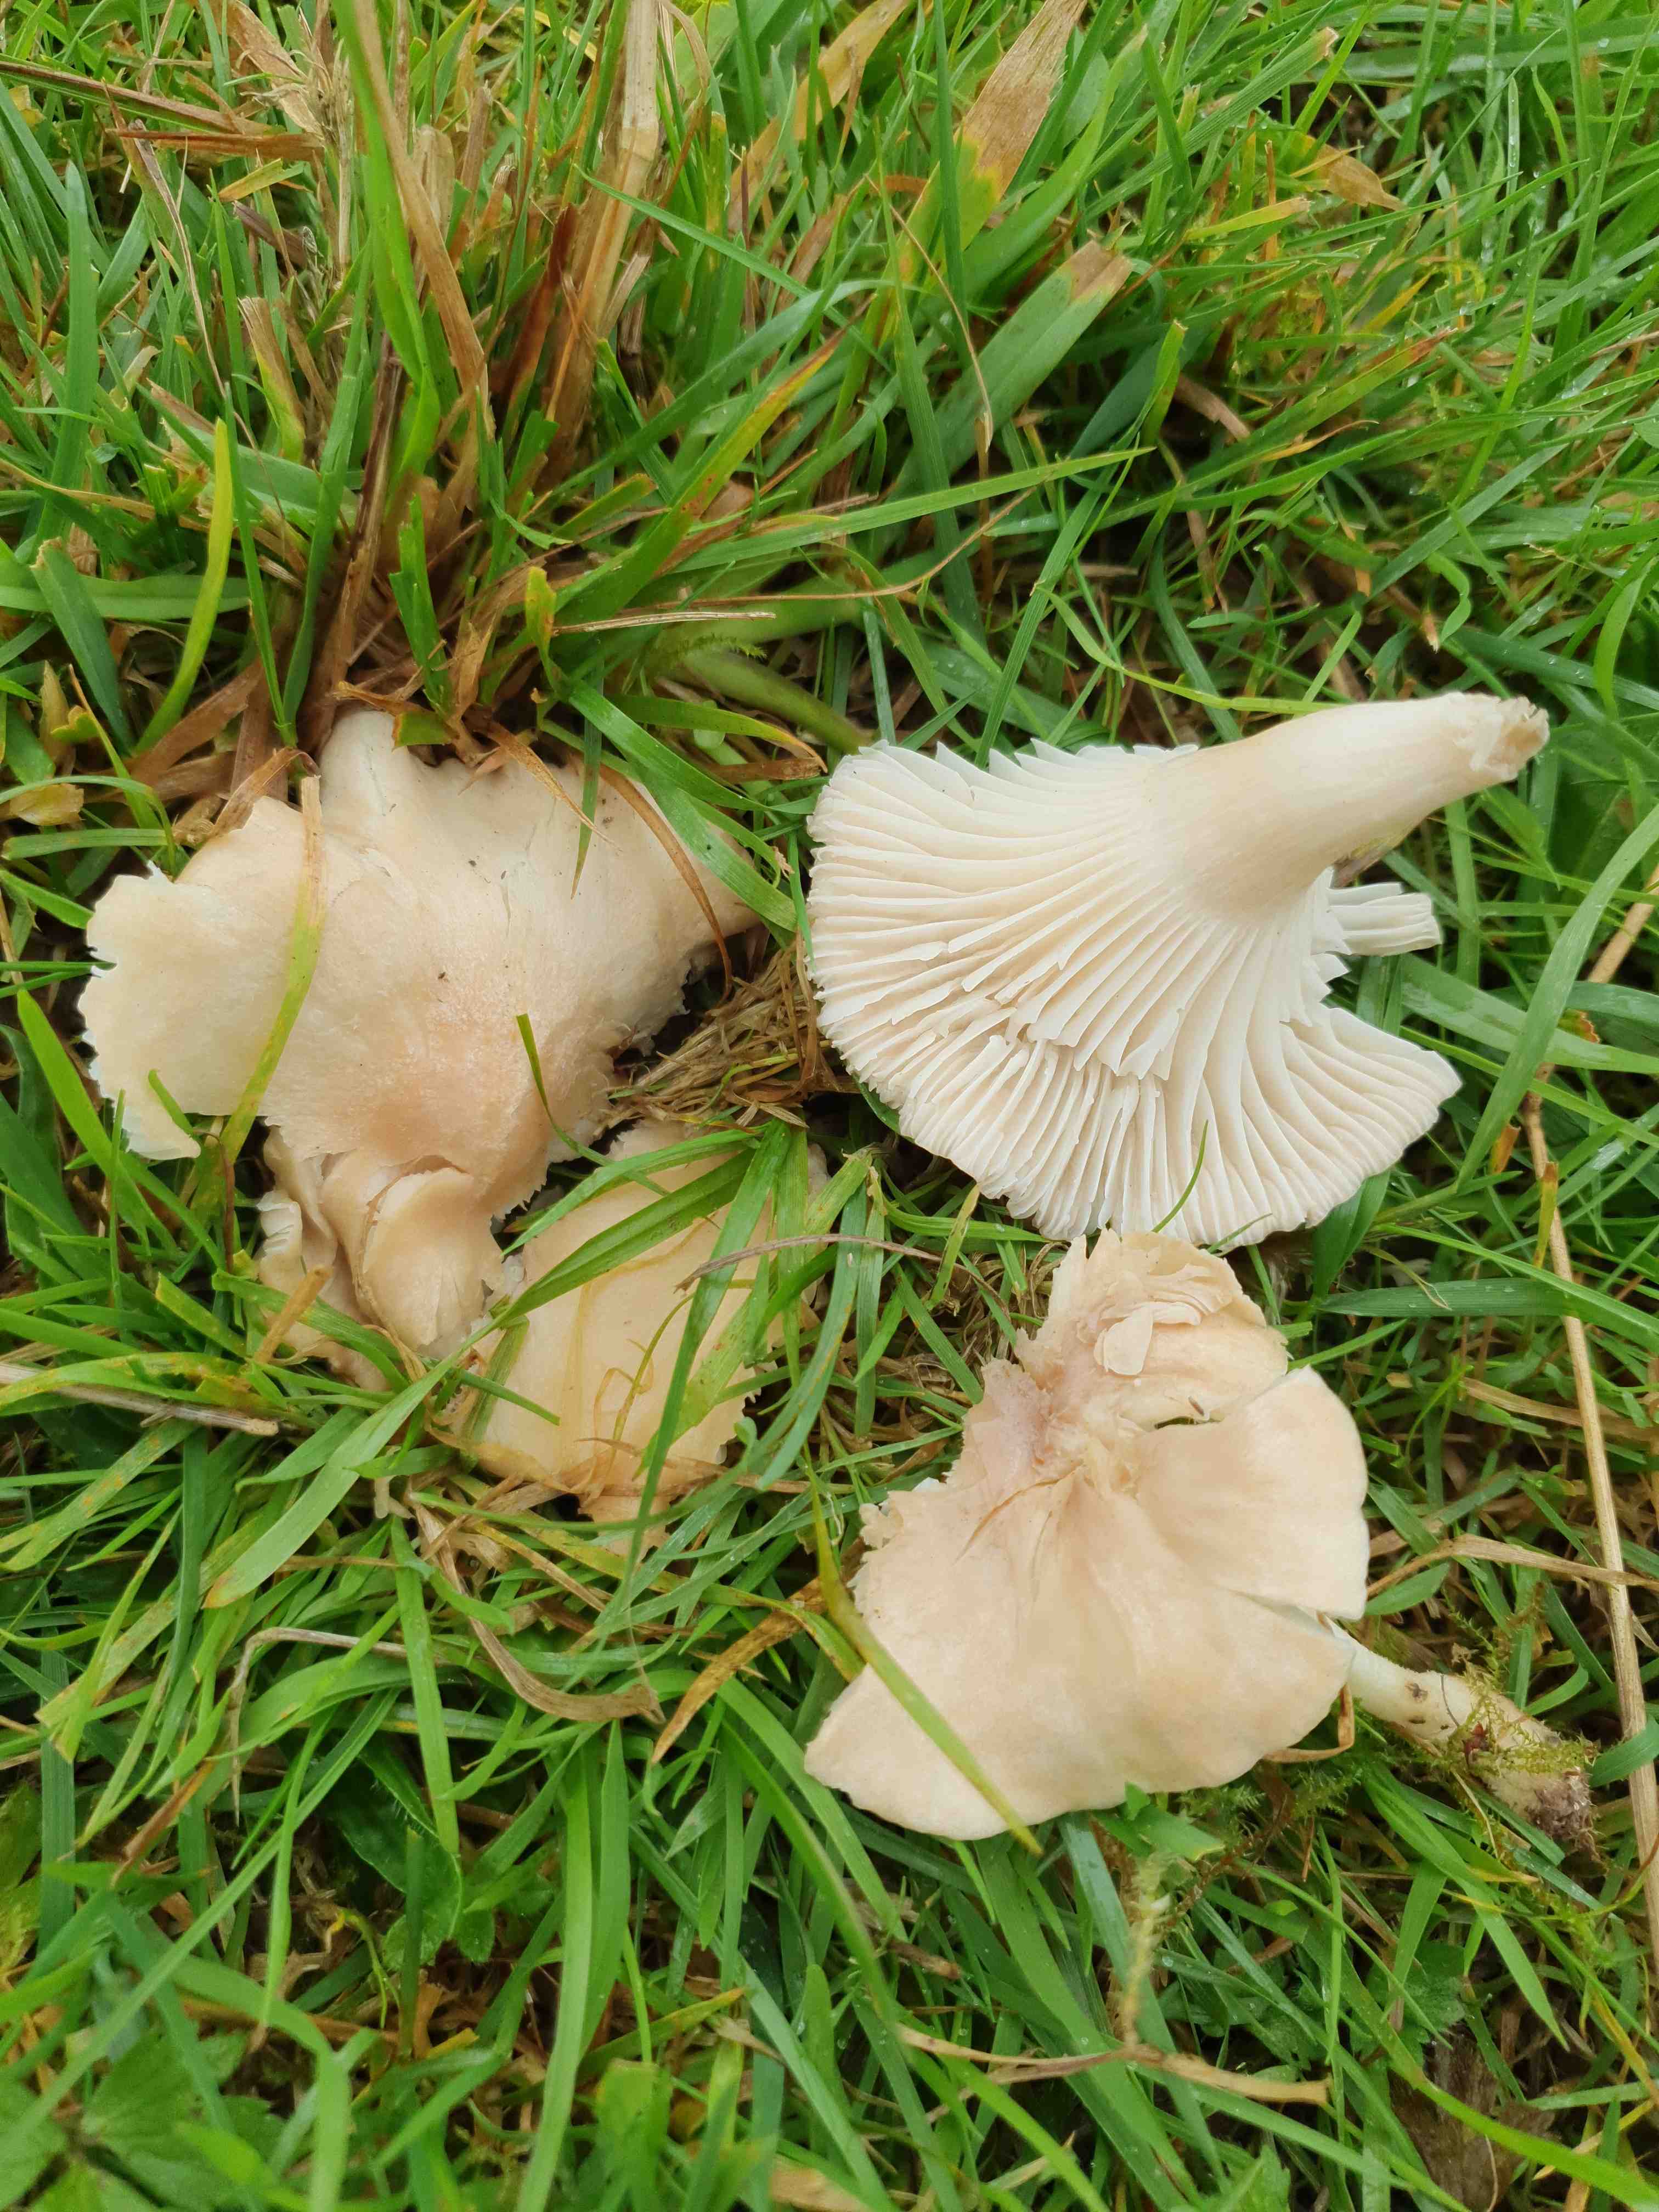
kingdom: Fungi
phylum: Basidiomycota
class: Agaricomycetes
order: Agaricales
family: Hygrophoraceae
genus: Cuphophyllus
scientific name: Cuphophyllus
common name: vokshat
